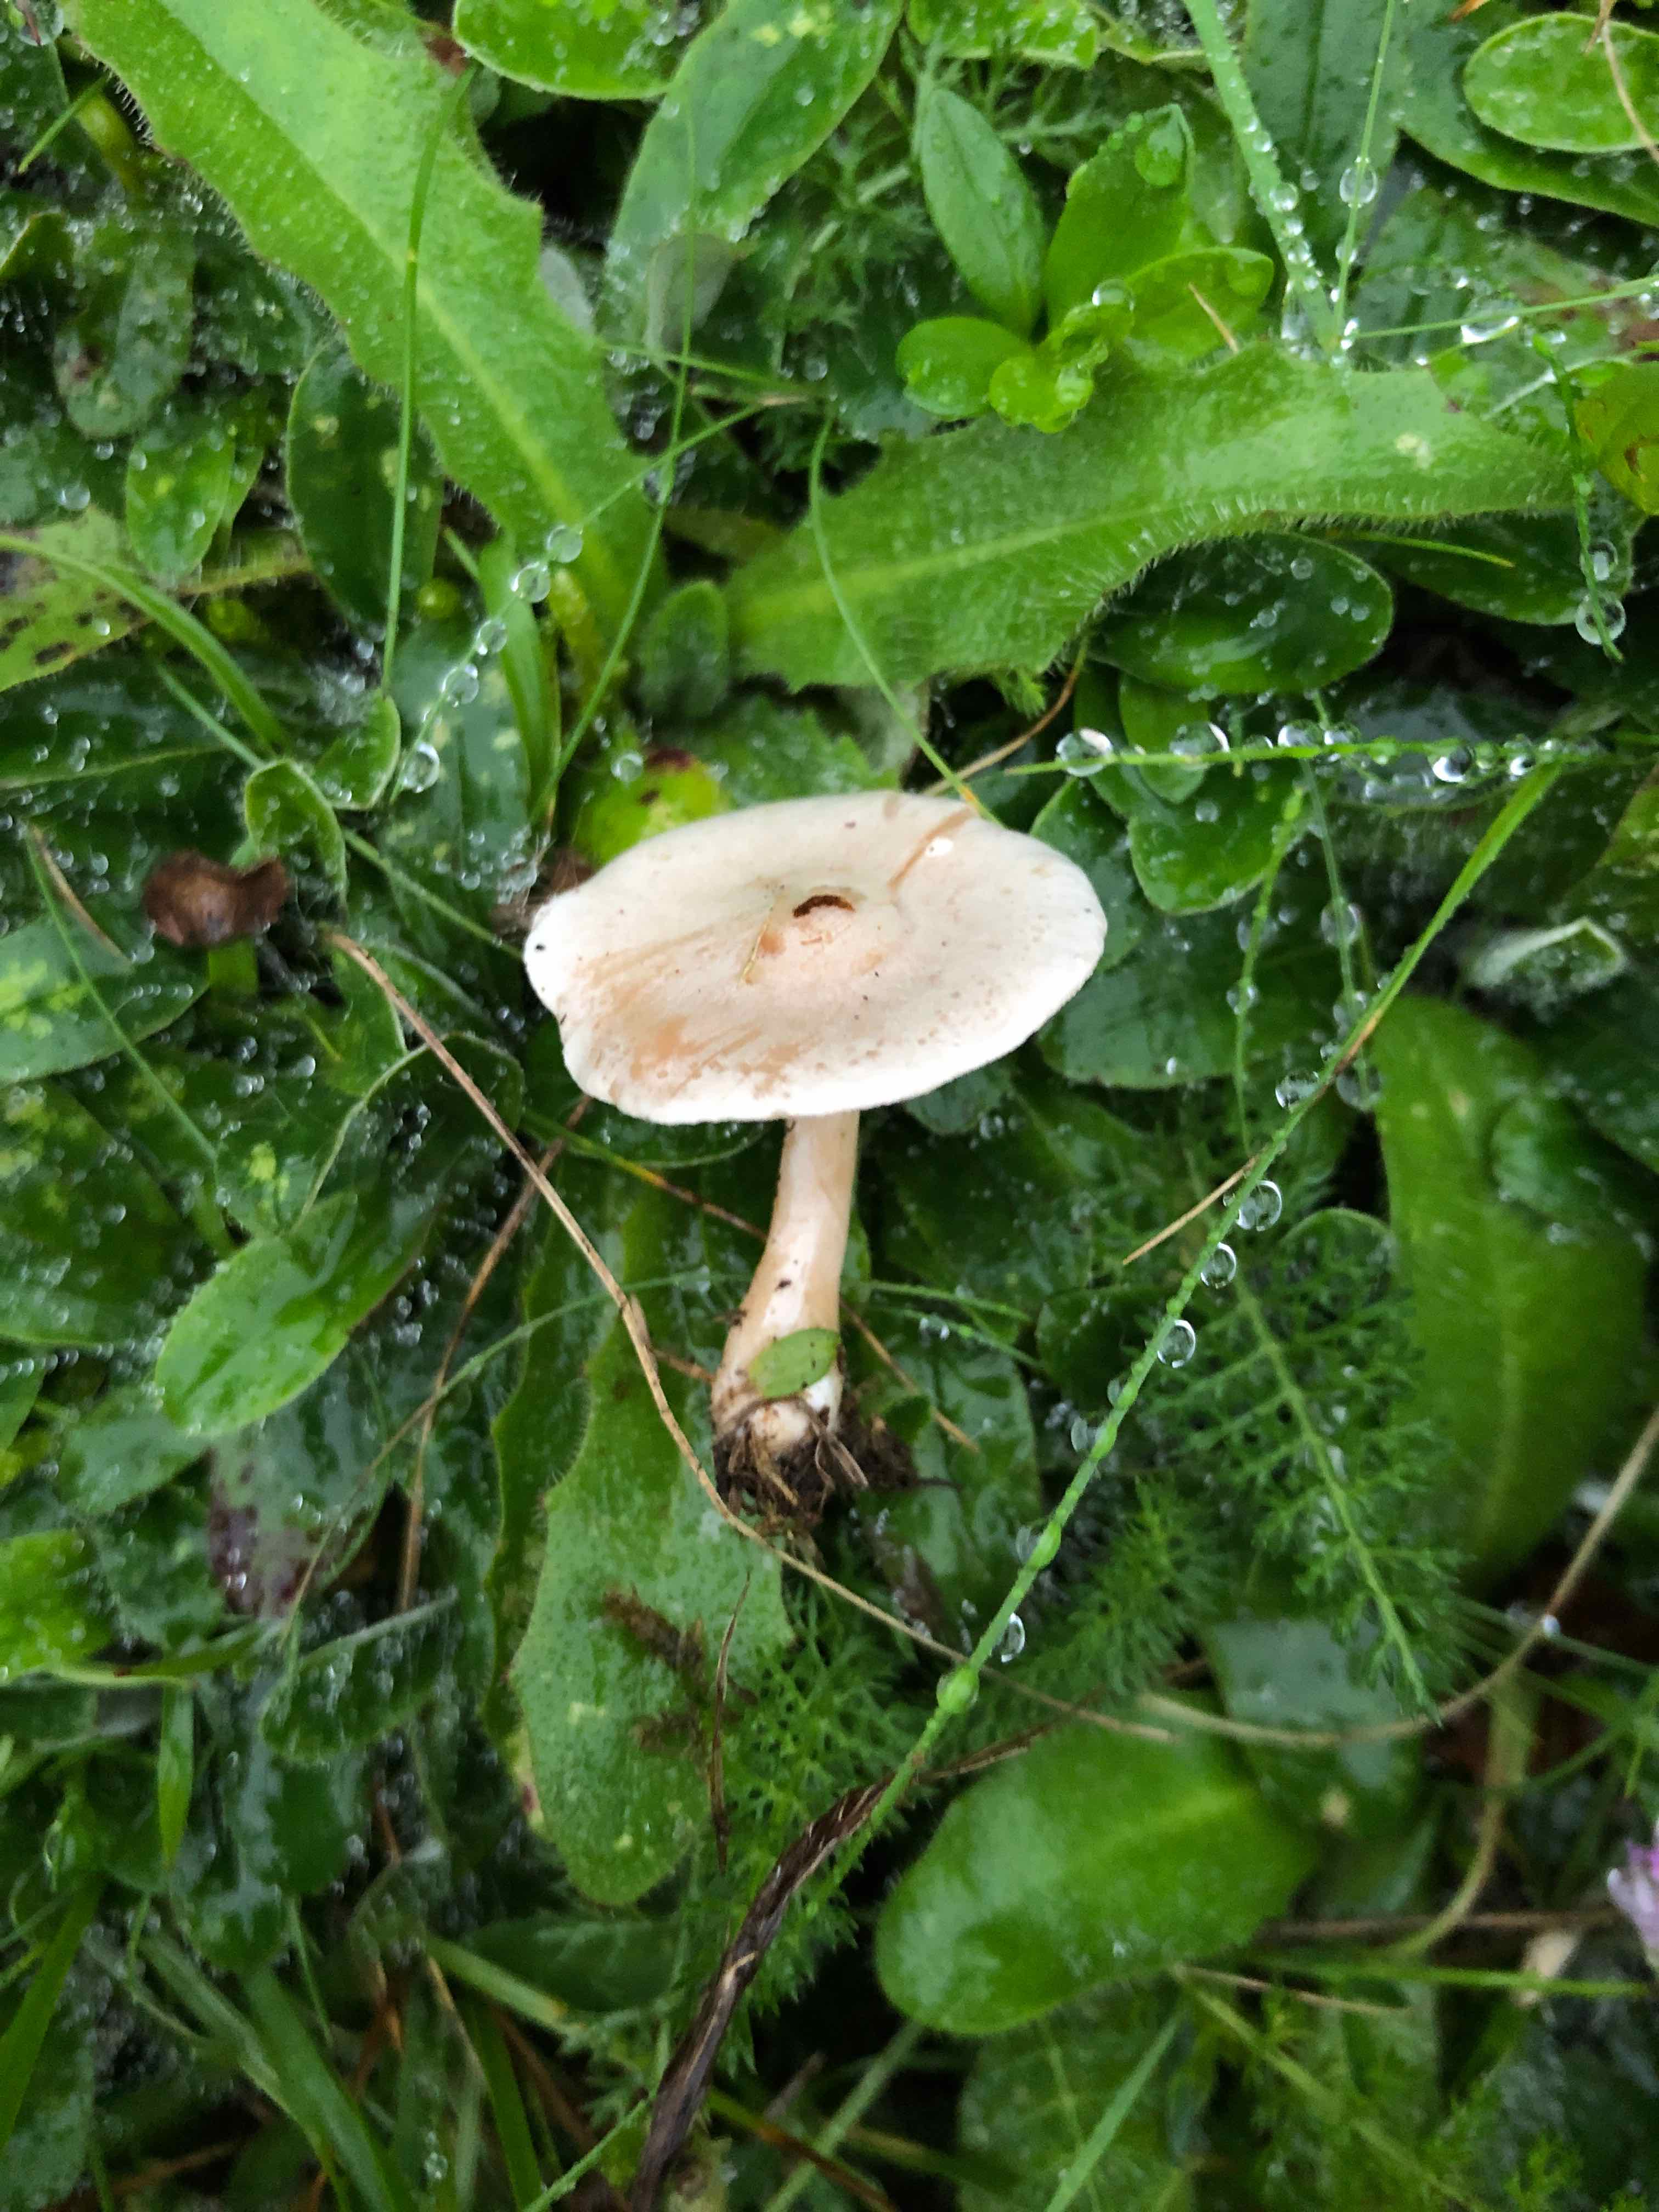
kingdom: Fungi
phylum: Basidiomycota
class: Agaricomycetes
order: Agaricales
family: Tricholomataceae
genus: Clitocybe
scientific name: Clitocybe rivulosa
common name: eng-tragthat
